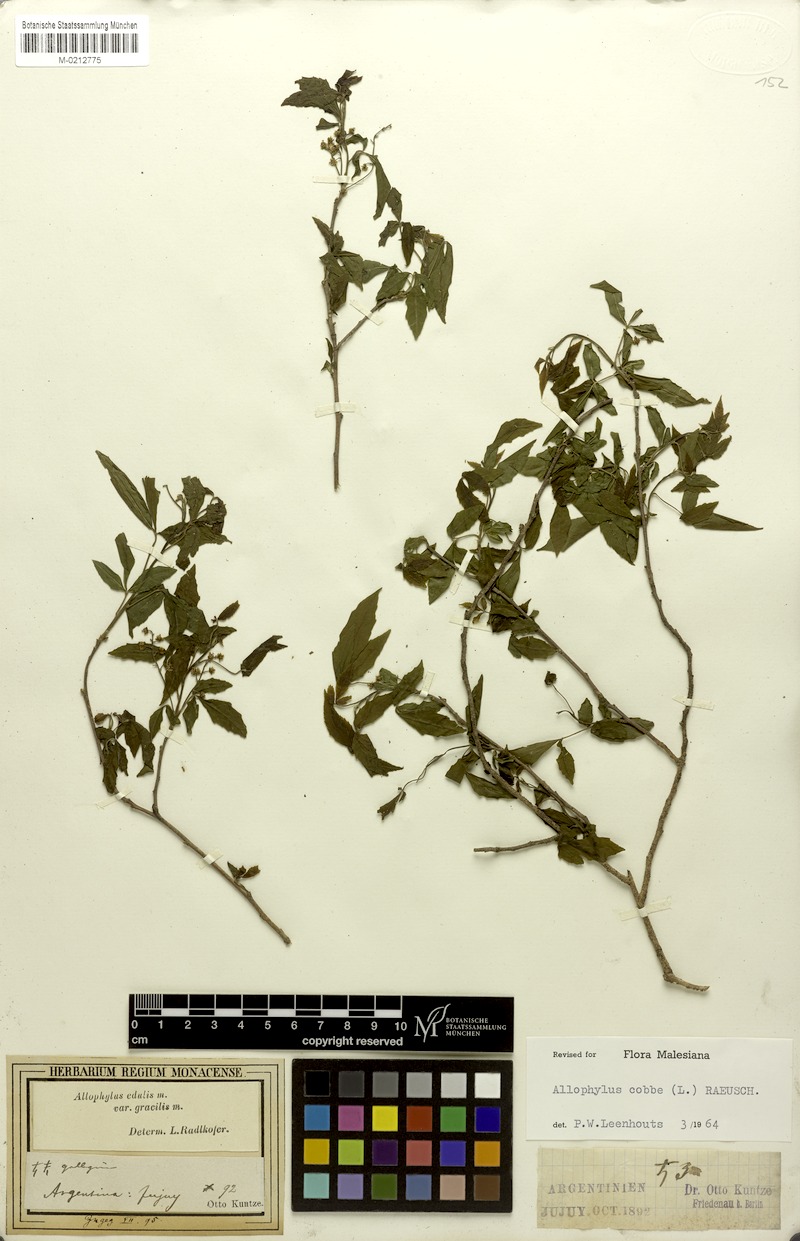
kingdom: Plantae
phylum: Tracheophyta
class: Magnoliopsida
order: Sapindales
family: Sapindaceae
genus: Allophylus
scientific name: Allophylus edulis
